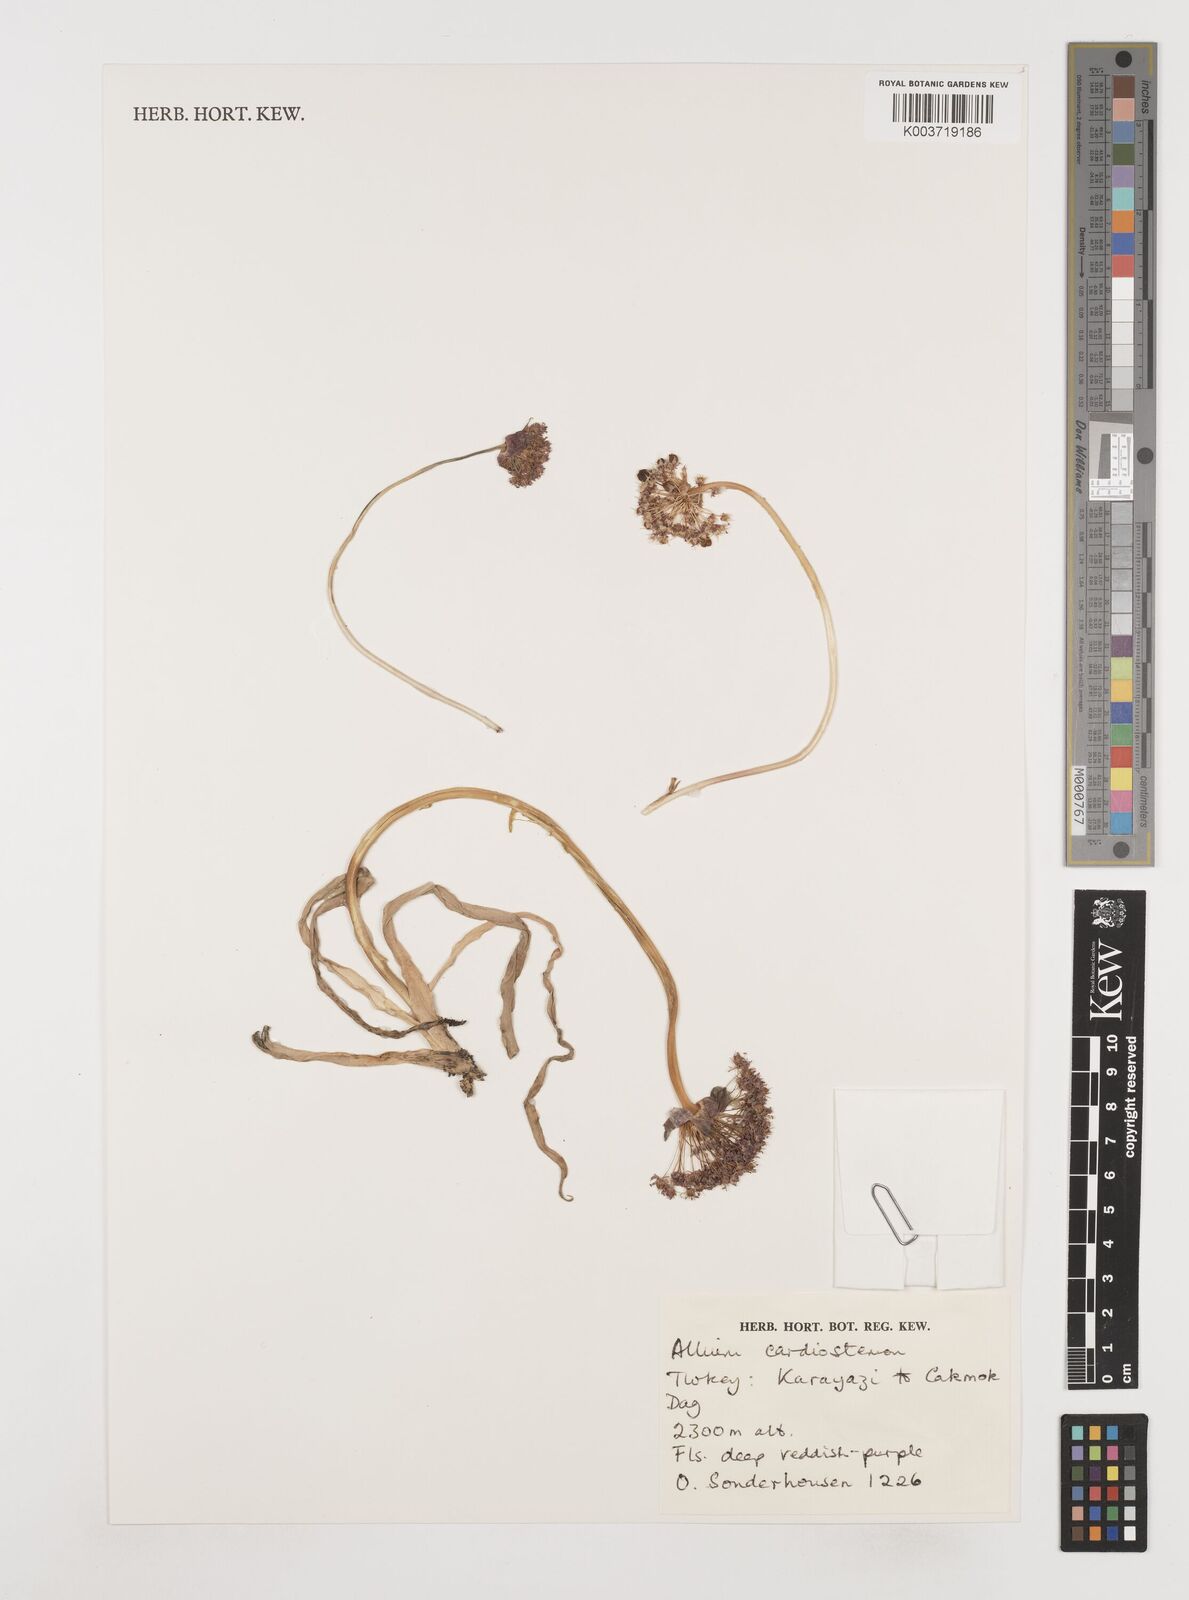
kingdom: Plantae
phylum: Tracheophyta
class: Liliopsida
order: Asparagales
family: Amaryllidaceae
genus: Allium
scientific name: Allium cardiostemon
